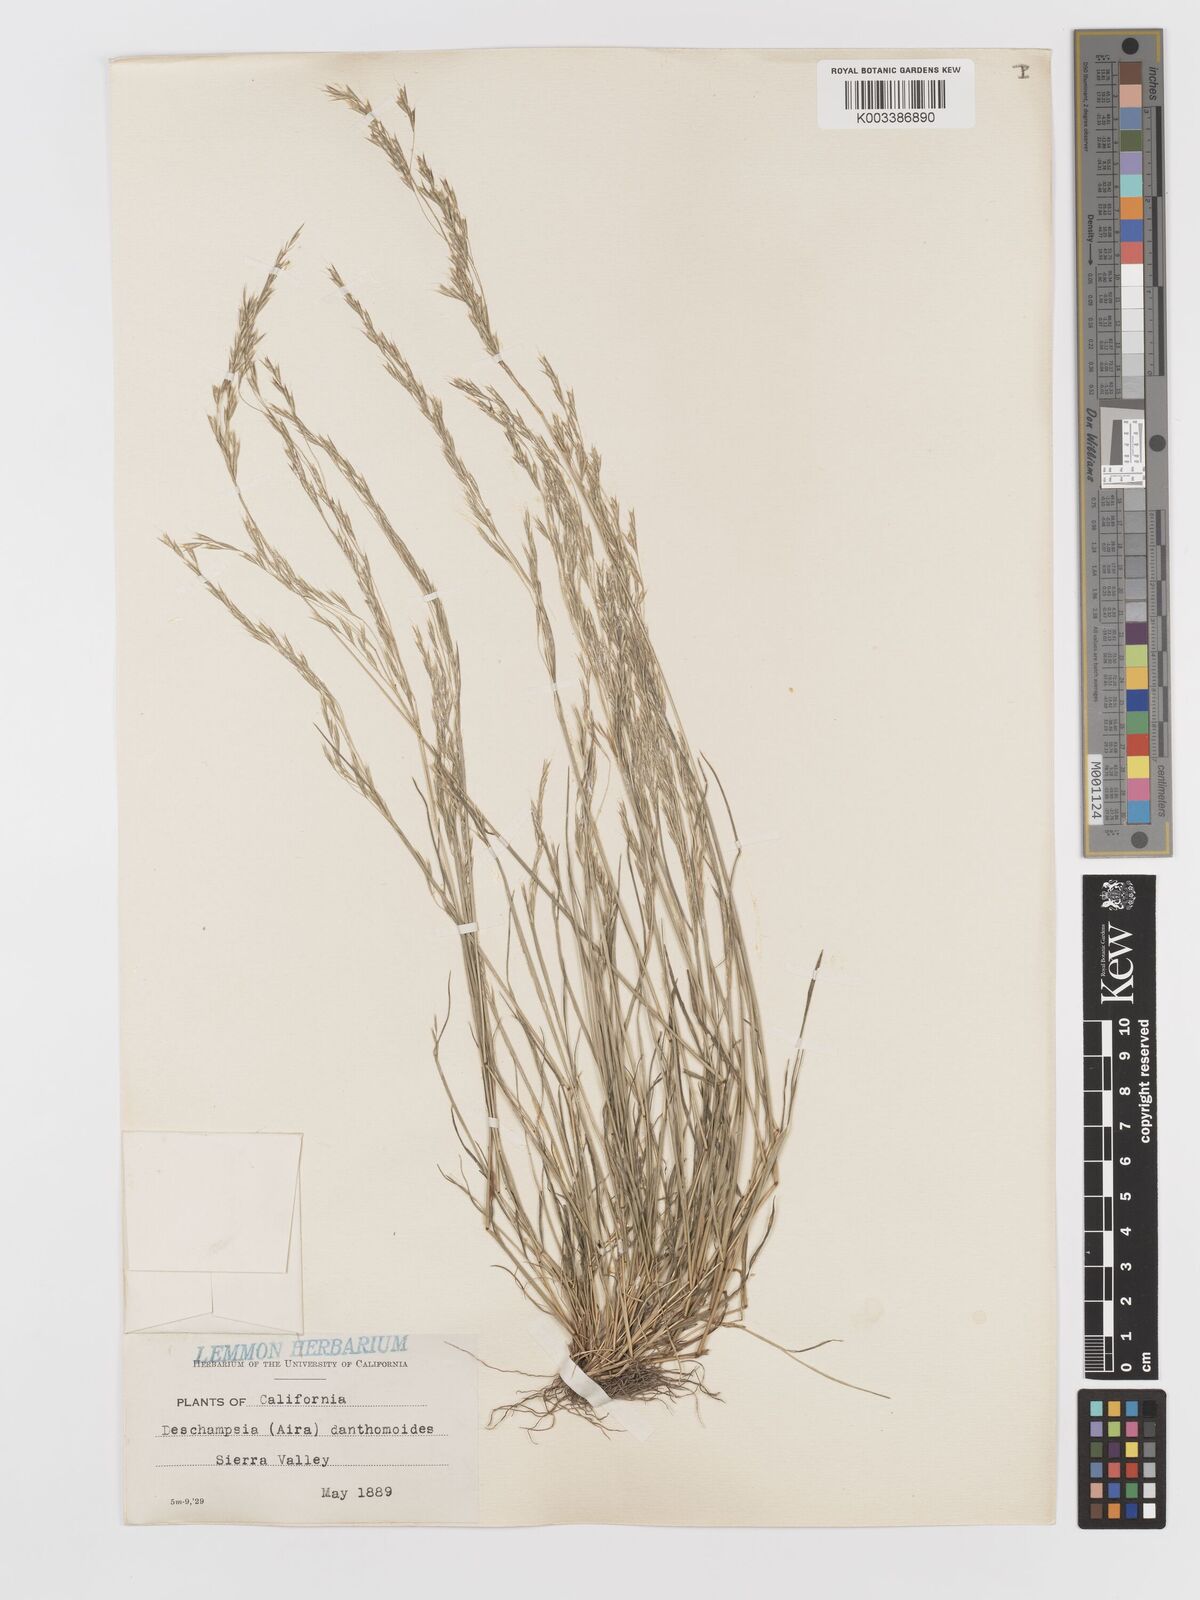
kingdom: Plantae
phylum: Tracheophyta
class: Liliopsida
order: Poales
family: Poaceae
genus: Deschampsia
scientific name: Deschampsia danthonioides
